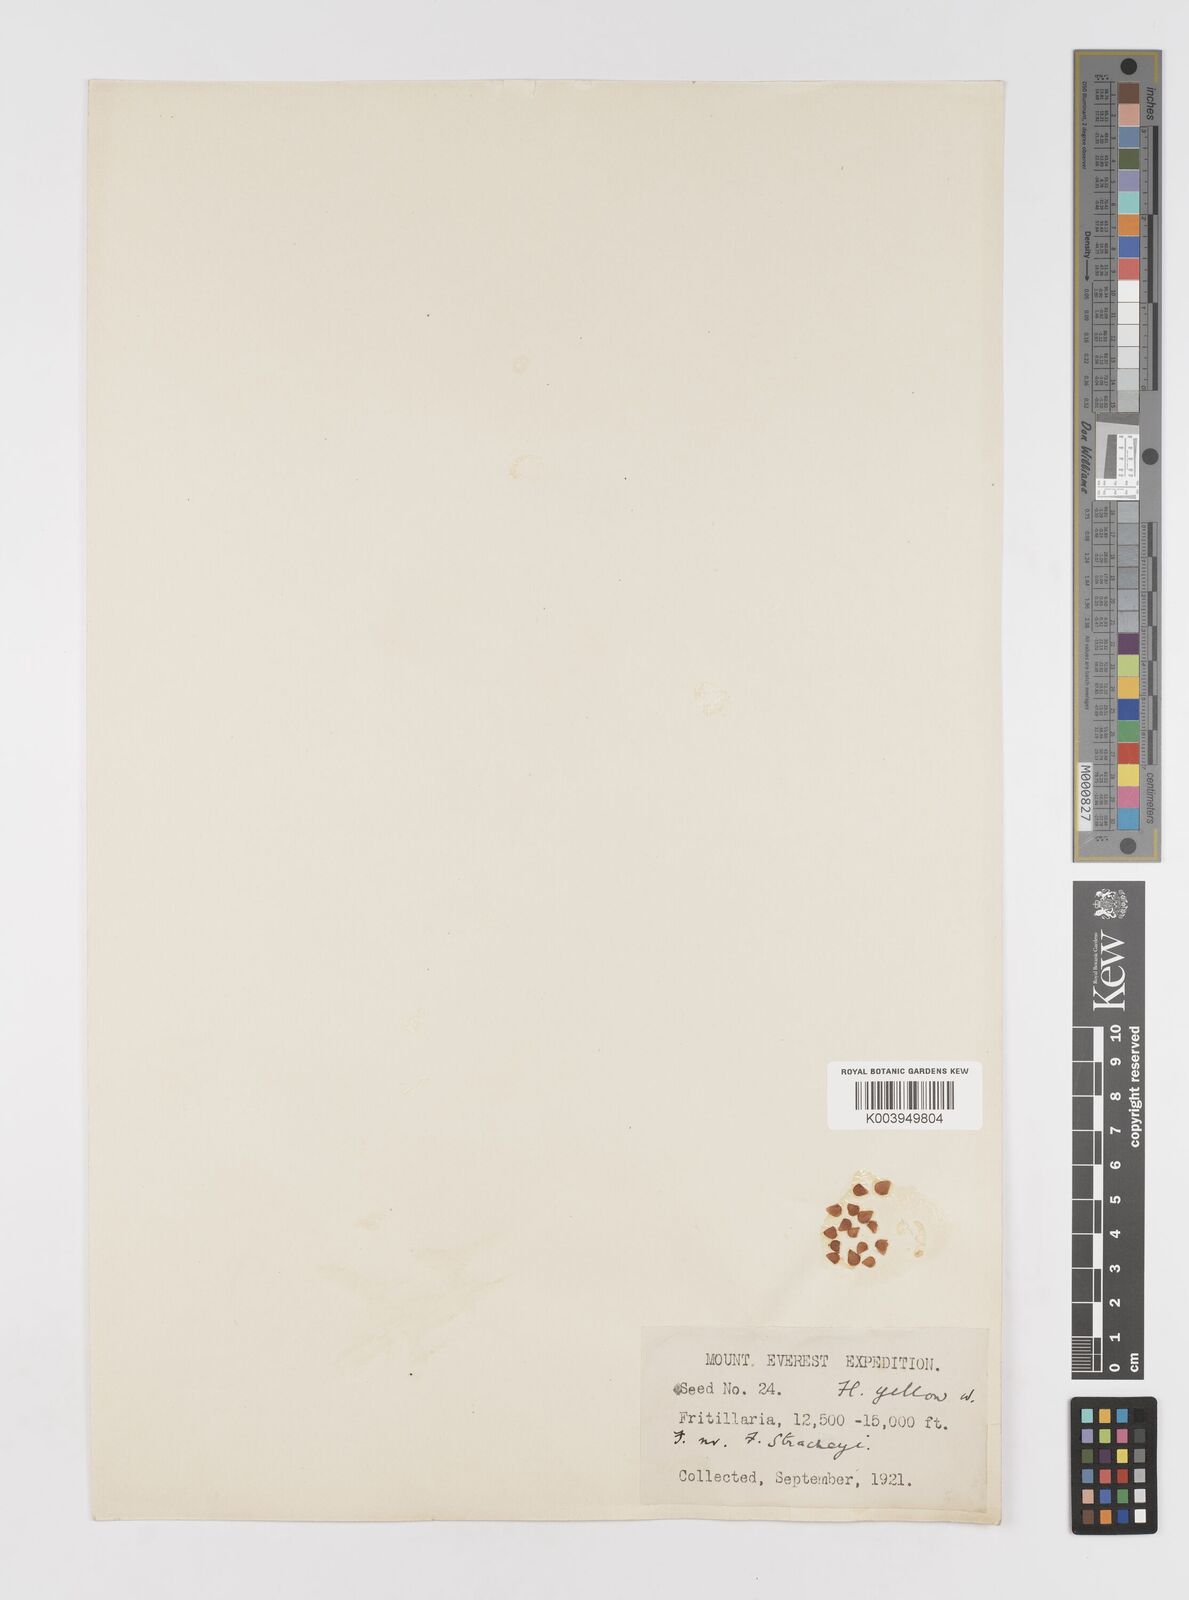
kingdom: Plantae
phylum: Tracheophyta
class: Liliopsida
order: Liliales
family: Liliaceae
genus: Lilium
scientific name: Lilium nanum
